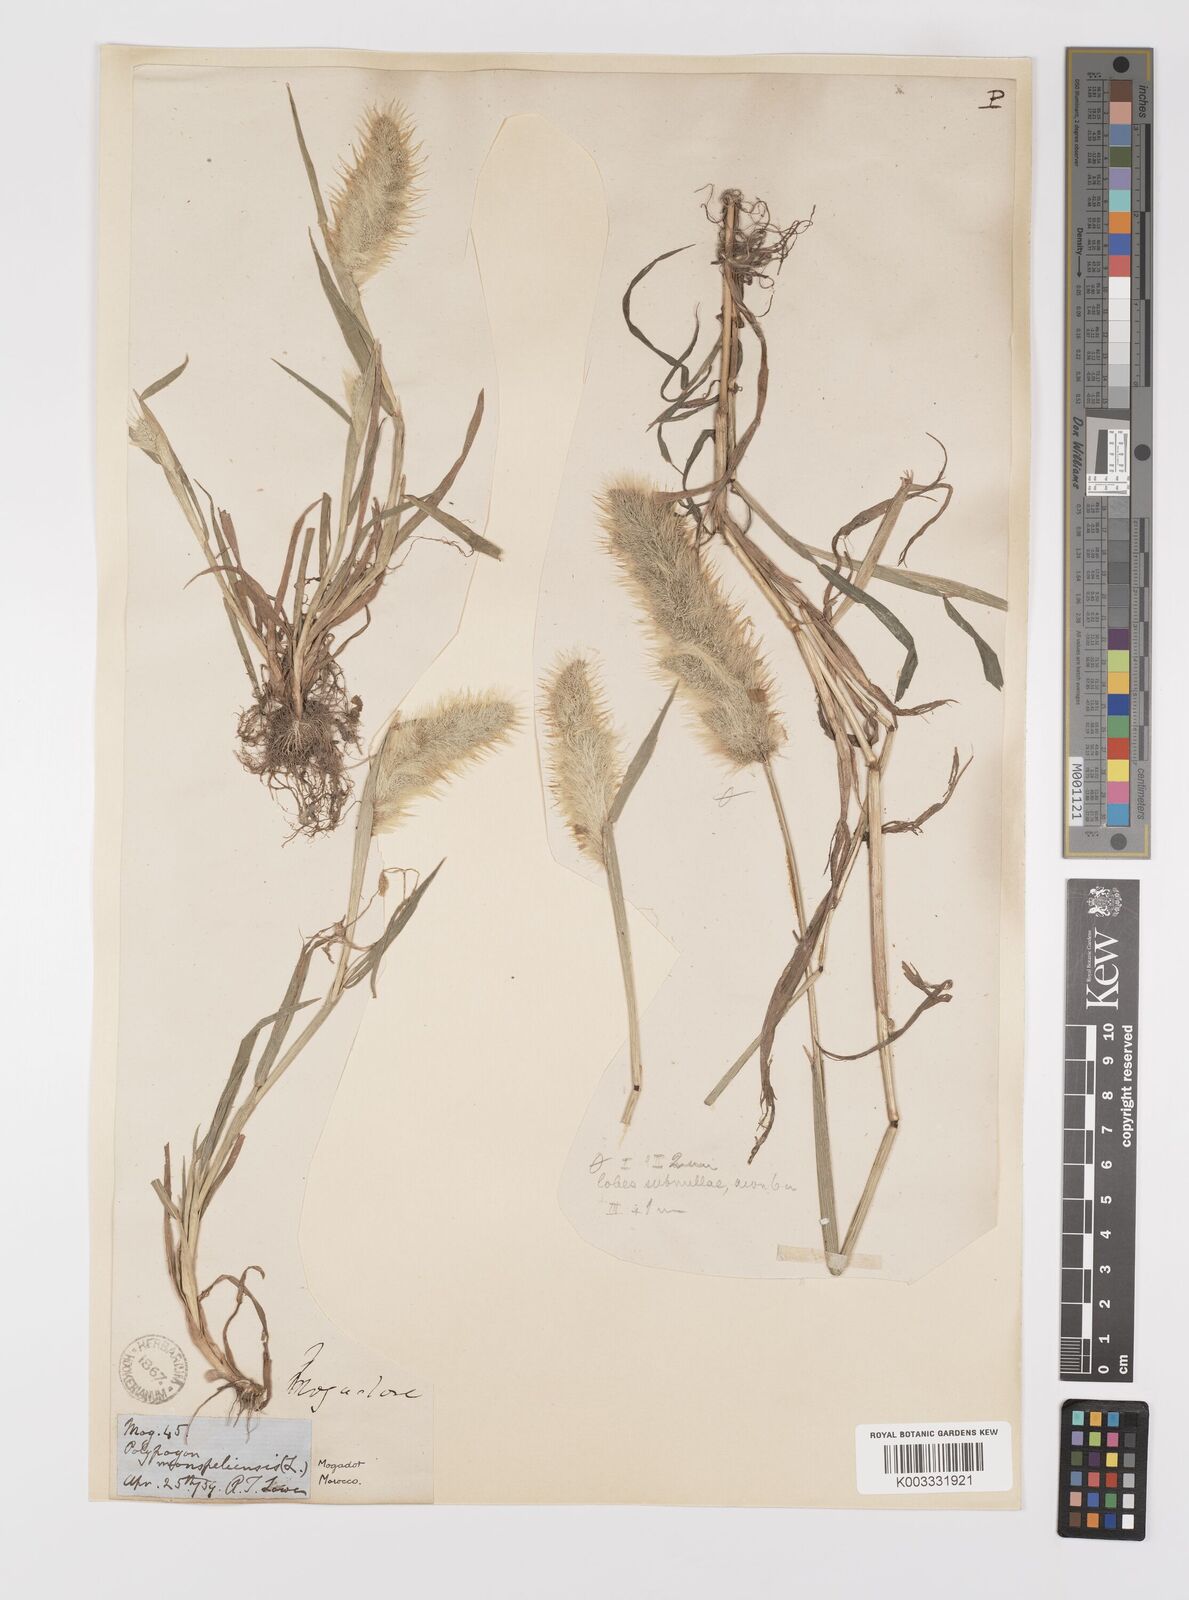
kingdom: Plantae
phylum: Tracheophyta
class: Liliopsida
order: Poales
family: Poaceae
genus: Polypogon
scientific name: Polypogon monspeliensis
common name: Annual rabbitsfoot grass
